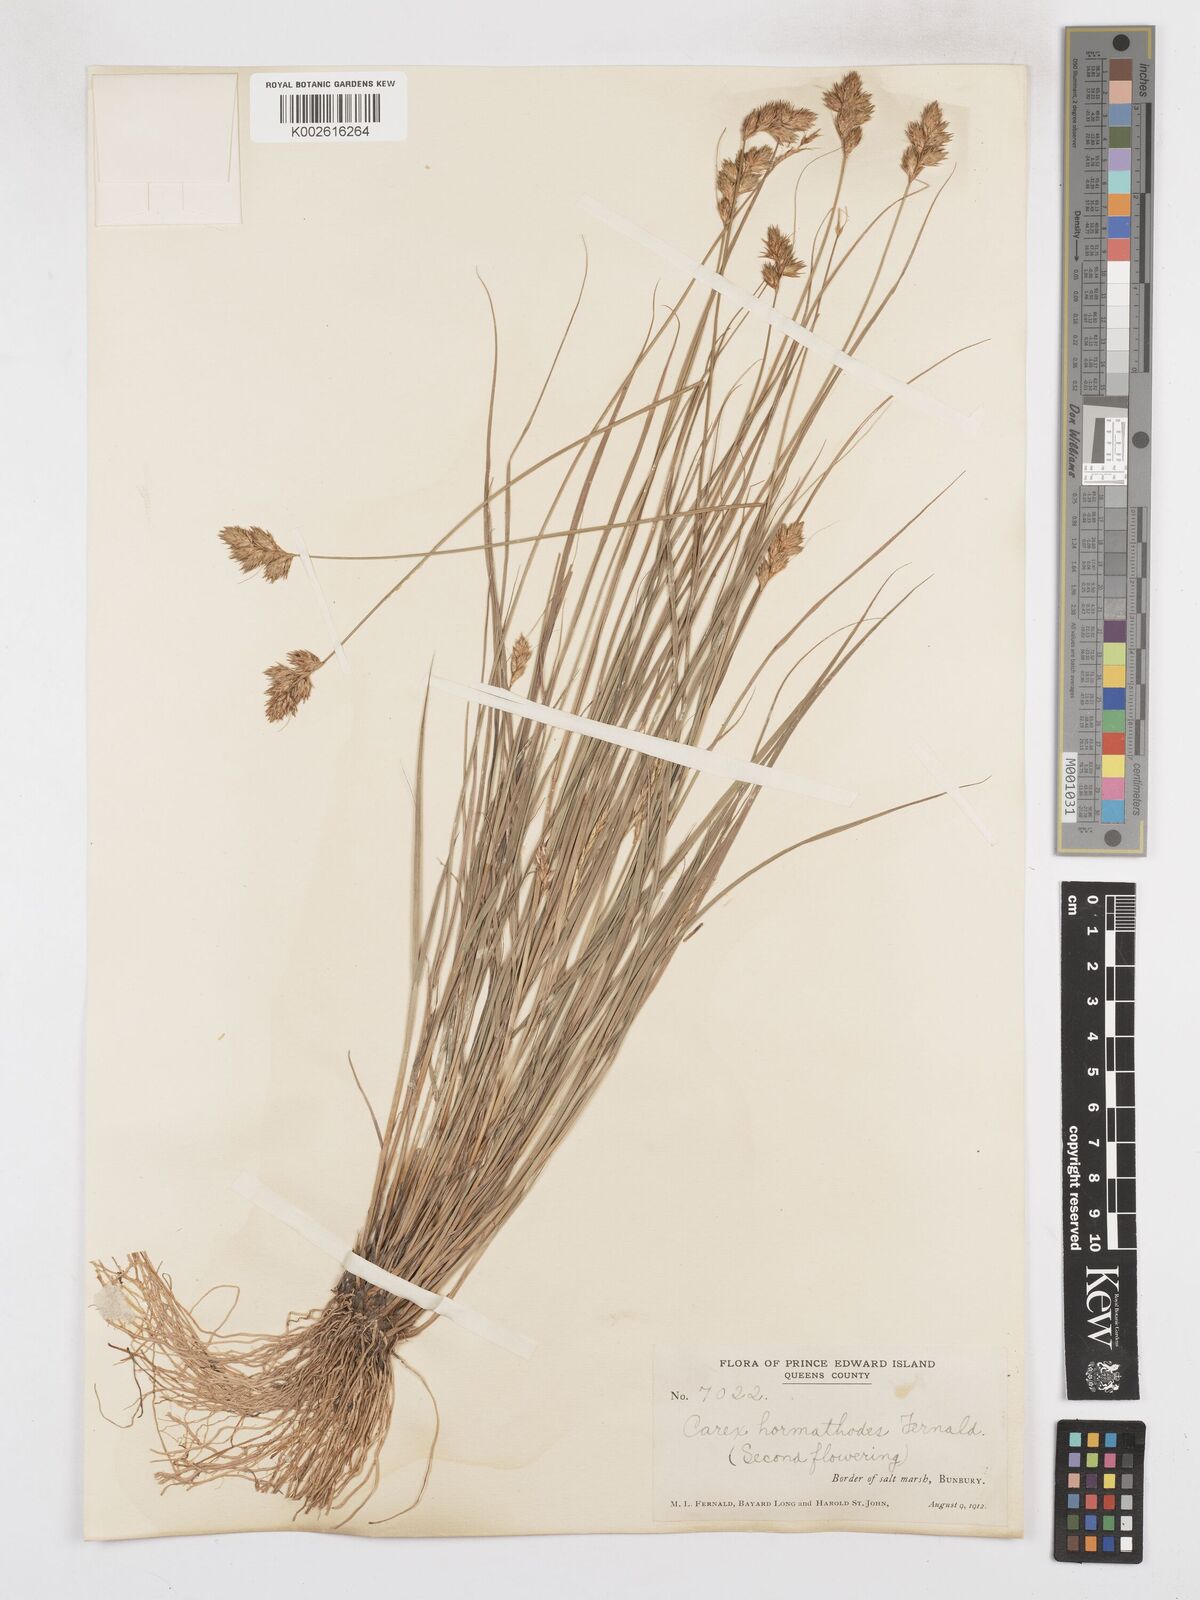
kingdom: Plantae
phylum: Tracheophyta
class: Liliopsida
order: Poales
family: Cyperaceae
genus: Carex
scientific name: Carex hormathodes
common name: Marsh straw sedge
